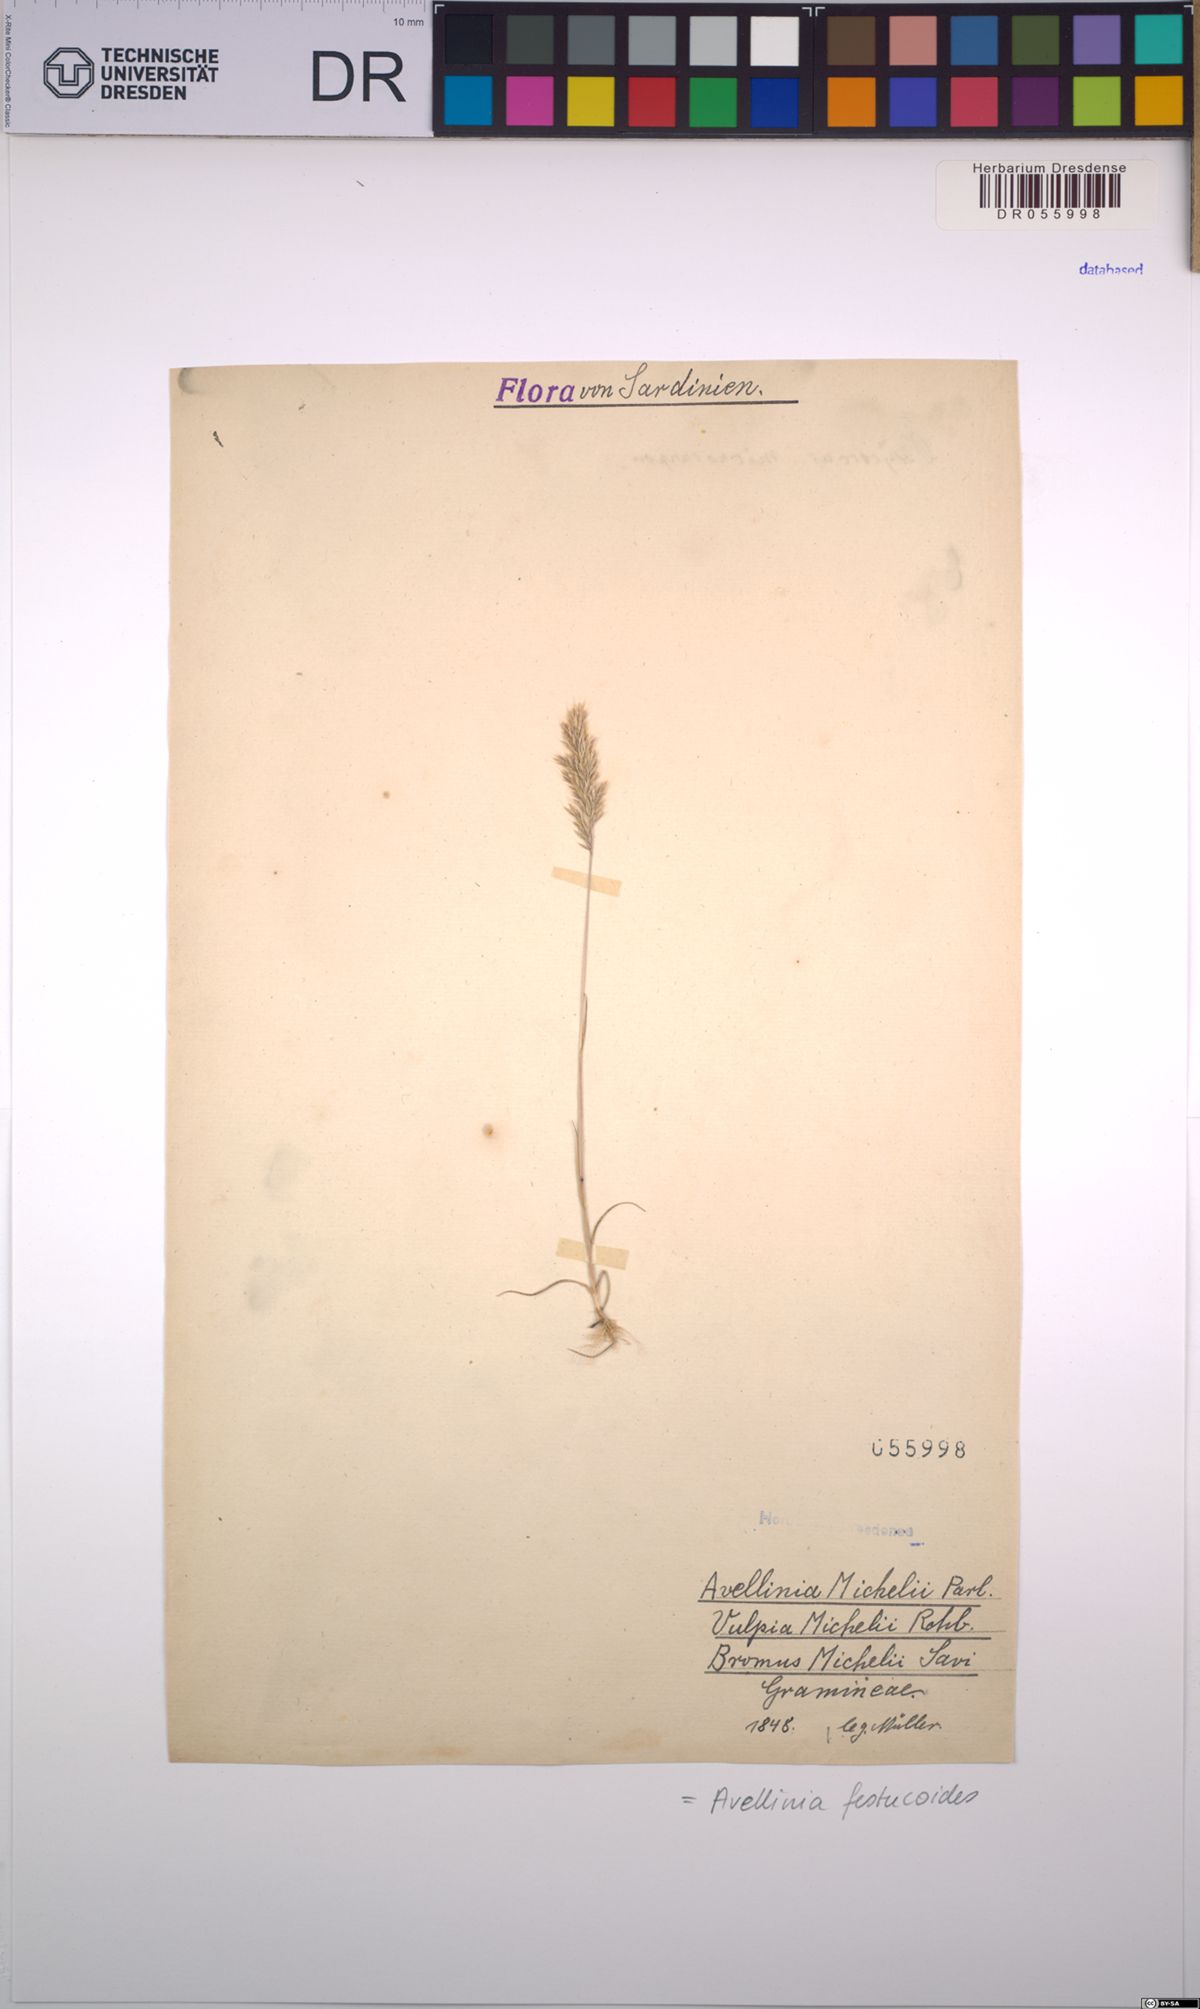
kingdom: Plantae
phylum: Tracheophyta
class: Liliopsida
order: Poales
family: Poaceae
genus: Avellinia
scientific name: Avellinia festucoides
